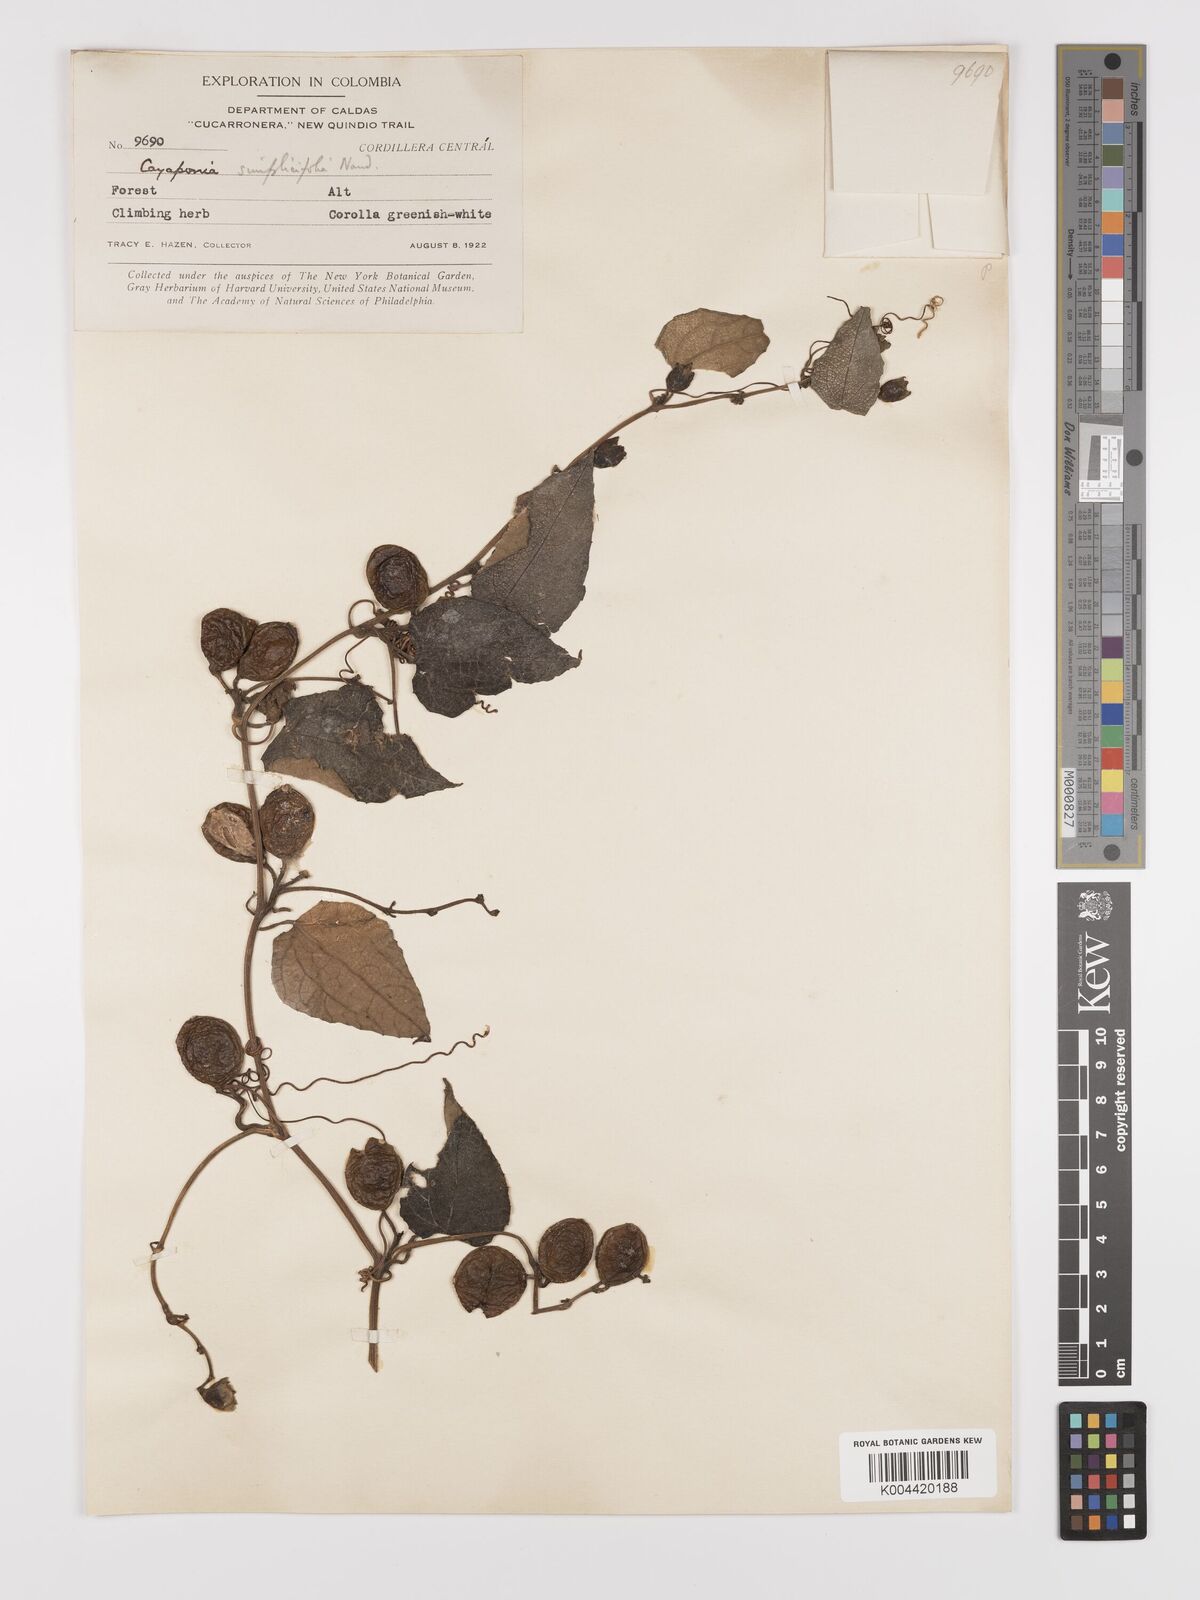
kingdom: Plantae
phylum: Tracheophyta
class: Magnoliopsida
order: Cucurbitales
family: Cucurbitaceae
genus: Cayaponia
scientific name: Cayaponia simplicifolia
